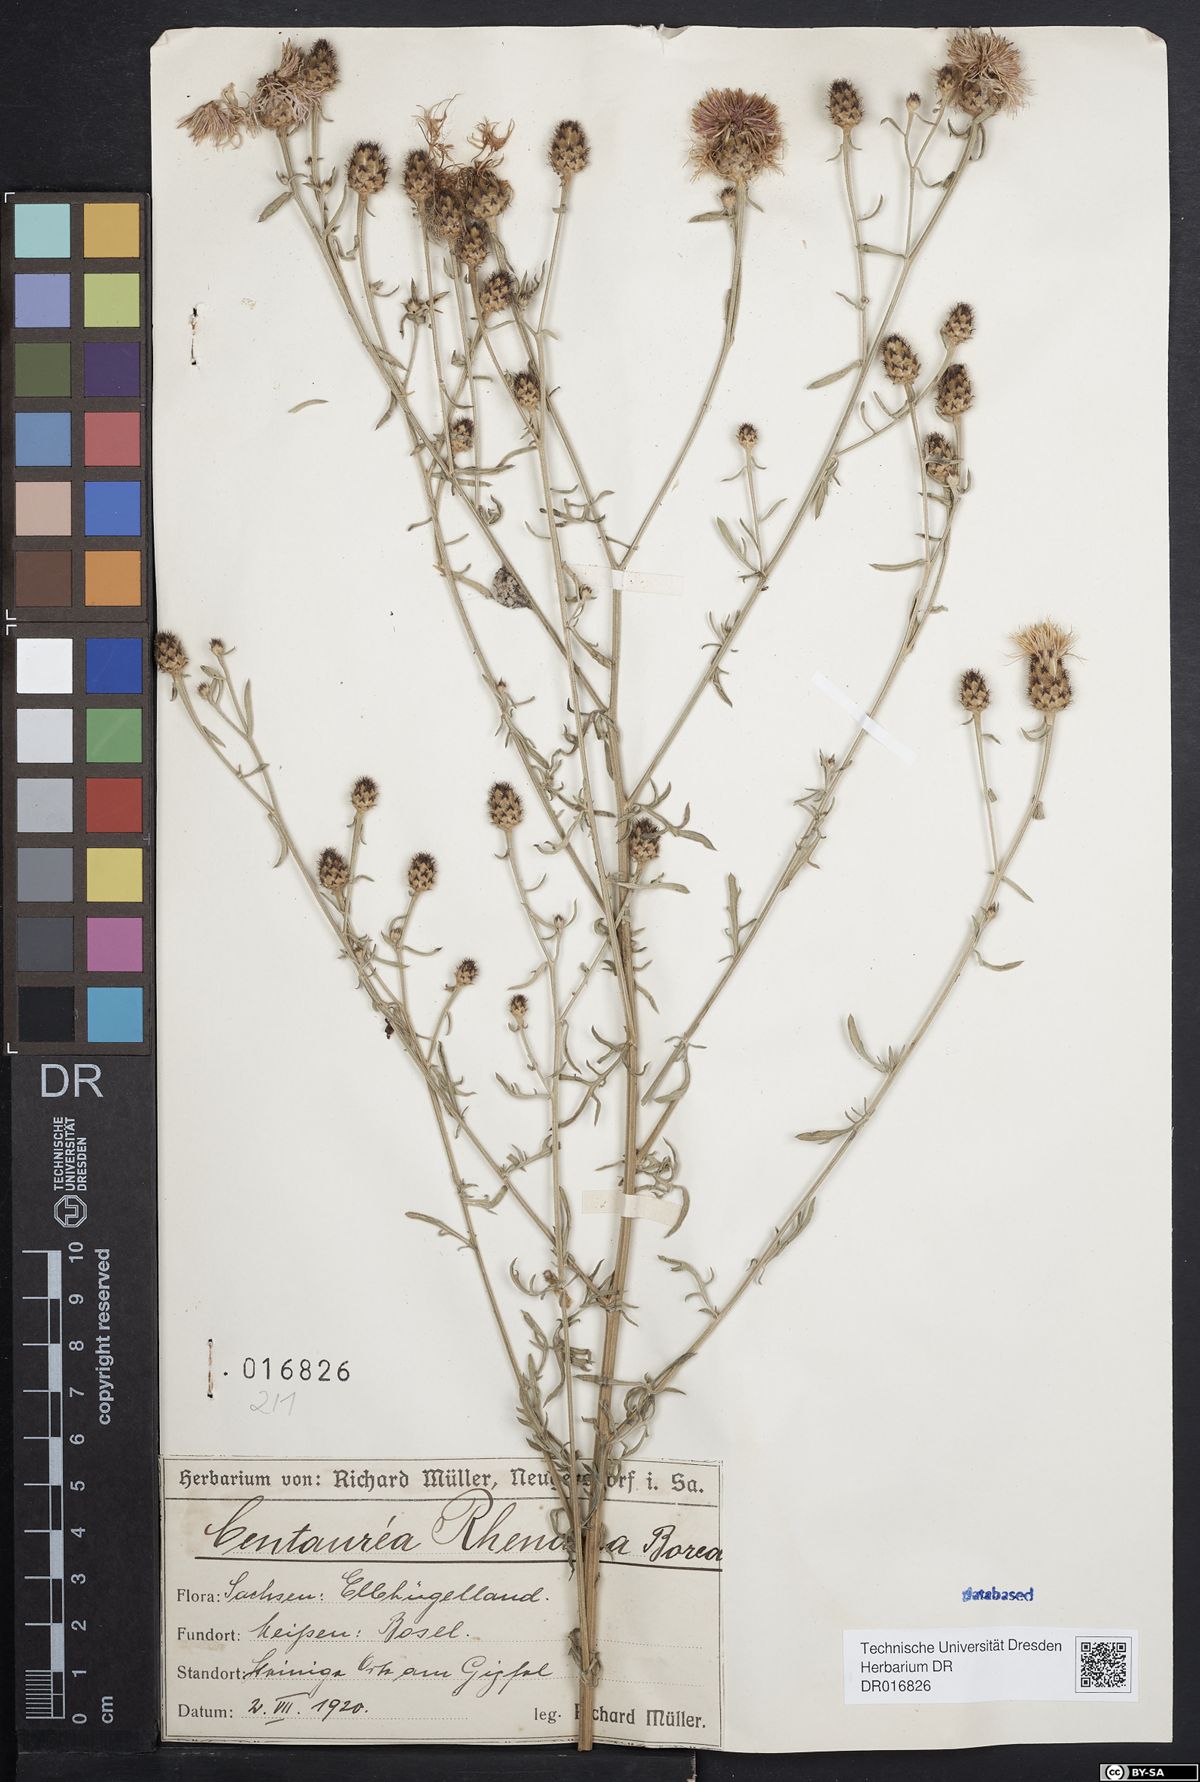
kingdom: Plantae
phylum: Tracheophyta
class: Magnoliopsida
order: Asterales
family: Asteraceae
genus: Centaurea
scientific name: Centaurea stoebe
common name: Spotted knapweed
